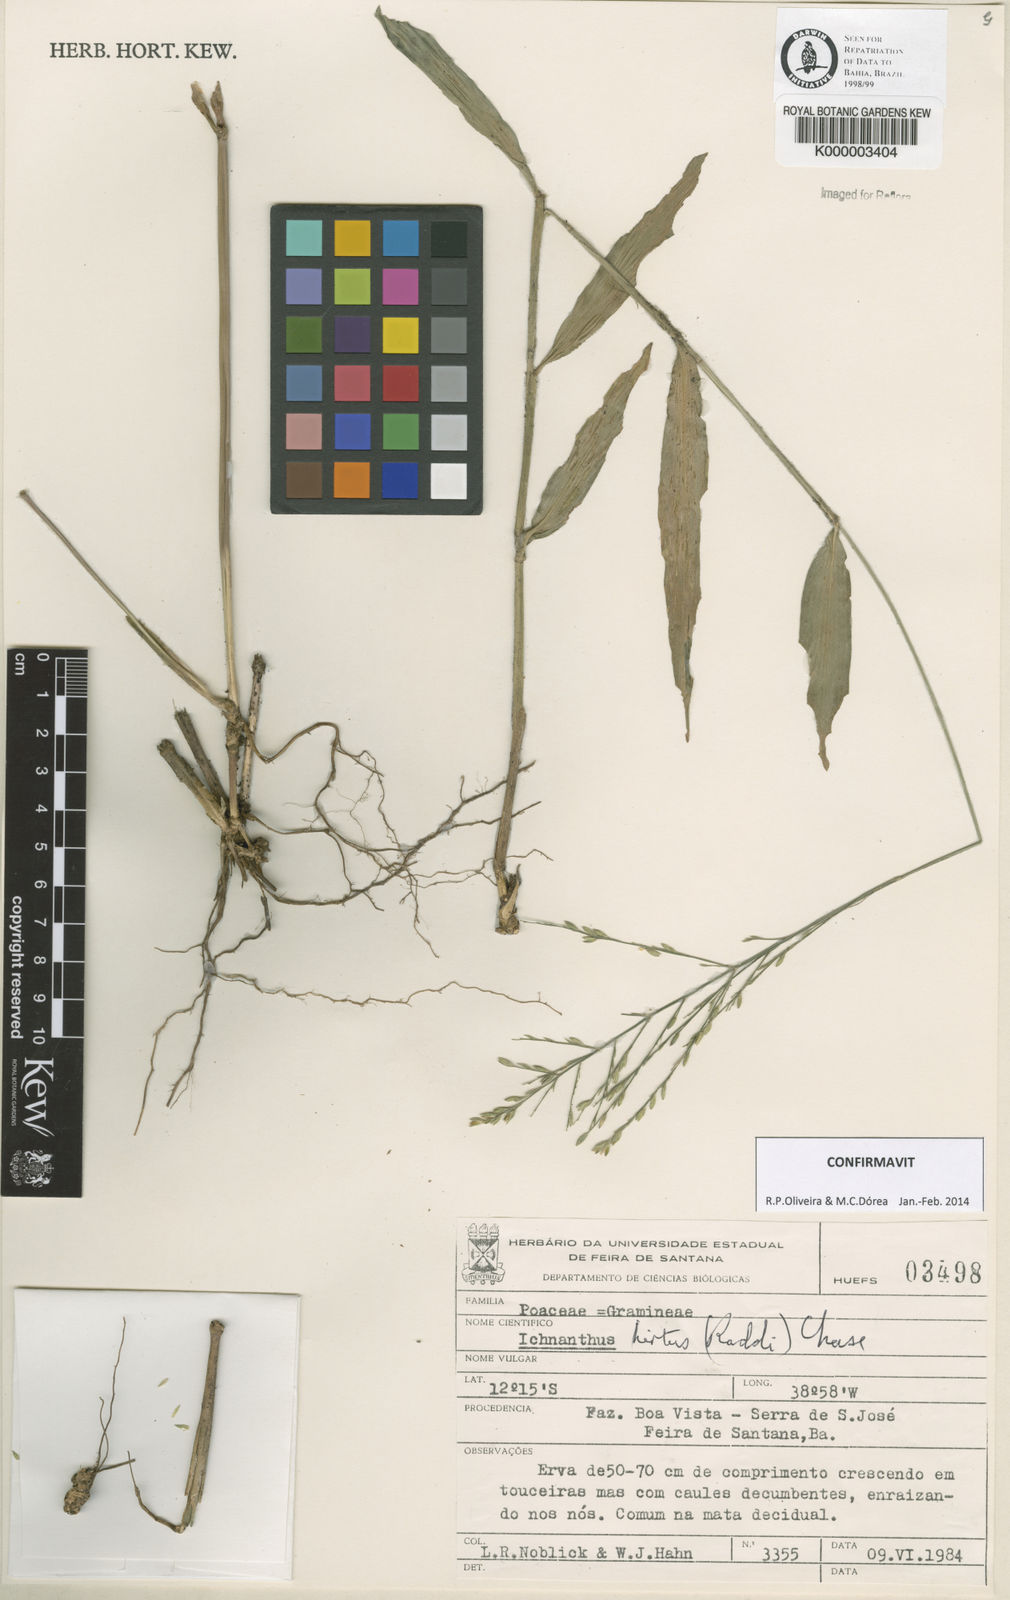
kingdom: Plantae
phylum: Tracheophyta
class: Liliopsida
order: Poales
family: Poaceae
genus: Ichnanthus
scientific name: Ichnanthus hirtus
